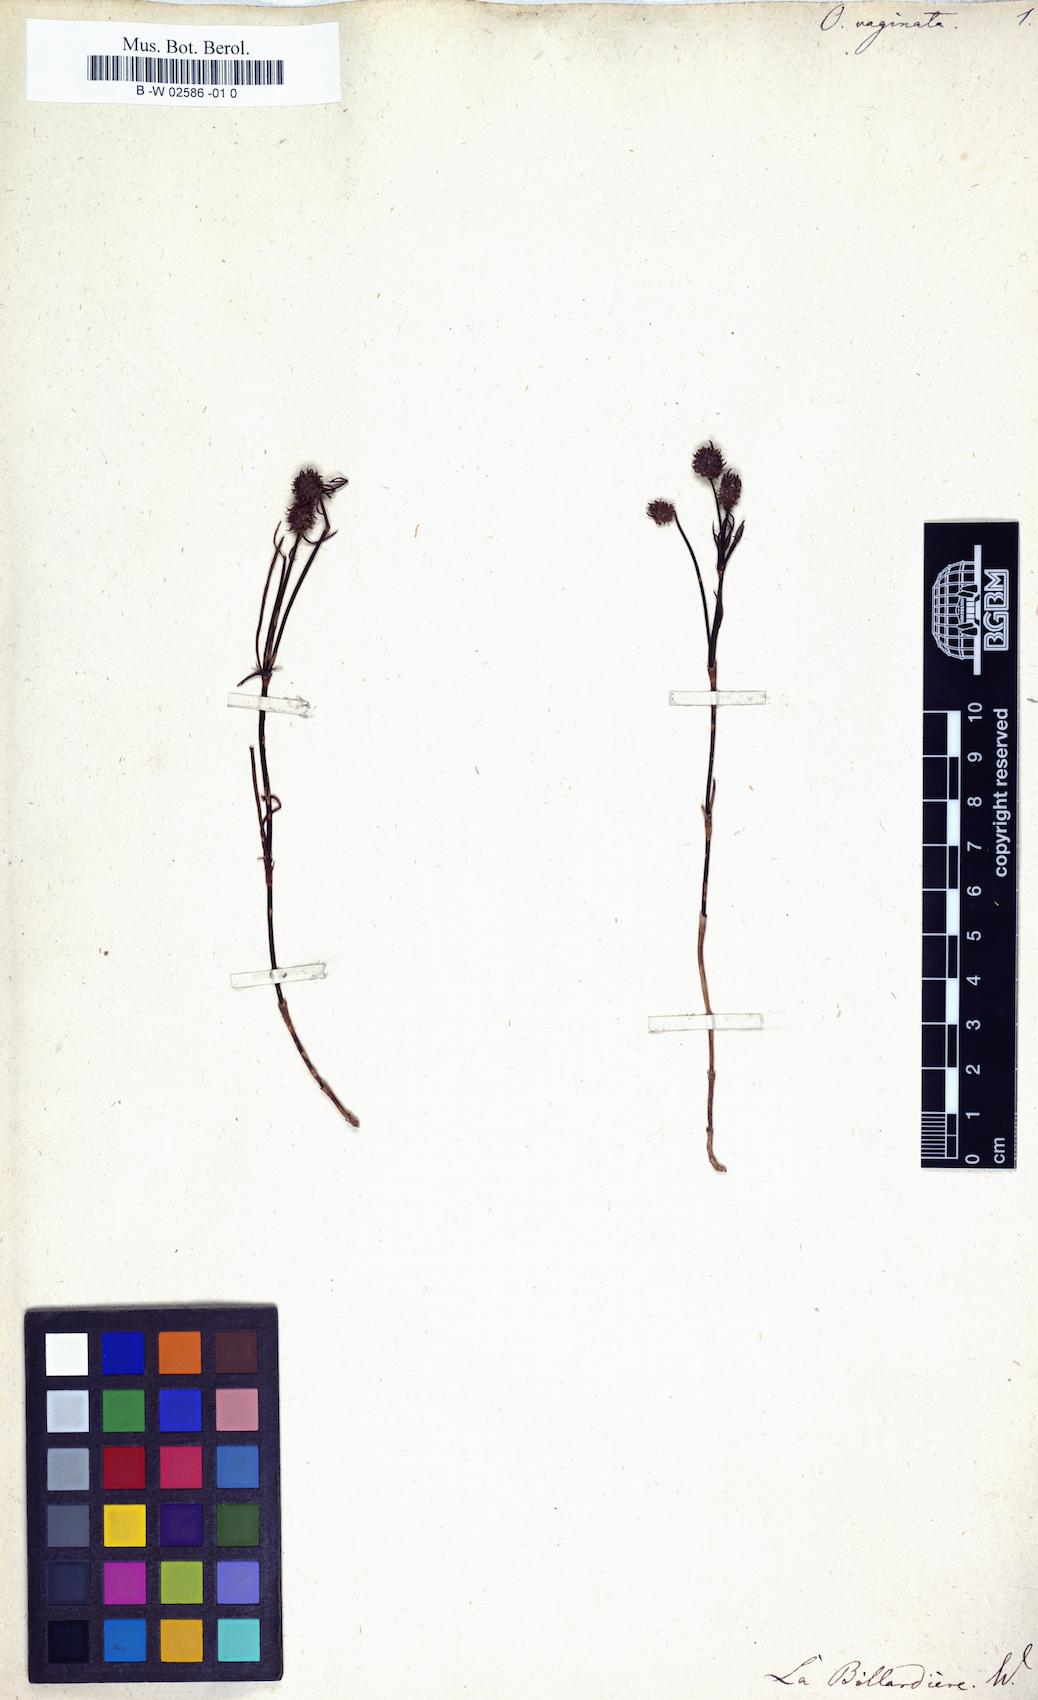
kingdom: Plantae
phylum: Tracheophyta
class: Magnoliopsida
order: Gentianales
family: Rubiaceae
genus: Opercularia
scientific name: Opercularia vaginata
